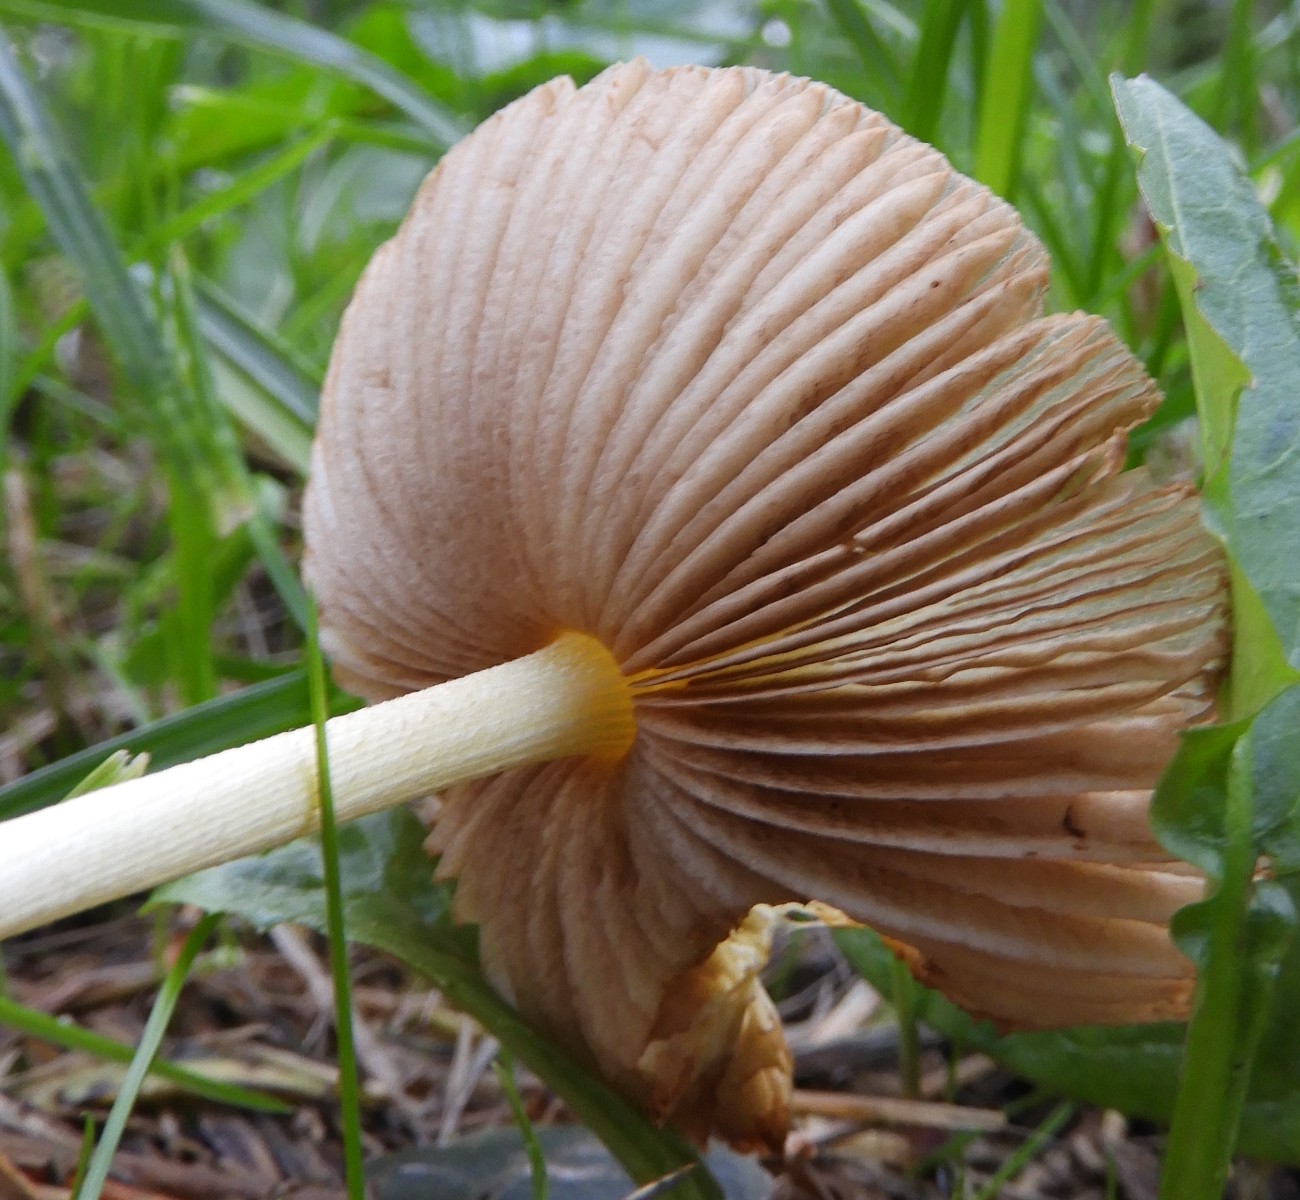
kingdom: Fungi
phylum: Basidiomycota
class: Agaricomycetes
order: Agaricales
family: Bolbitiaceae
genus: Bolbitius
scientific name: Bolbitius titubans
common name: almindelig gulhat
